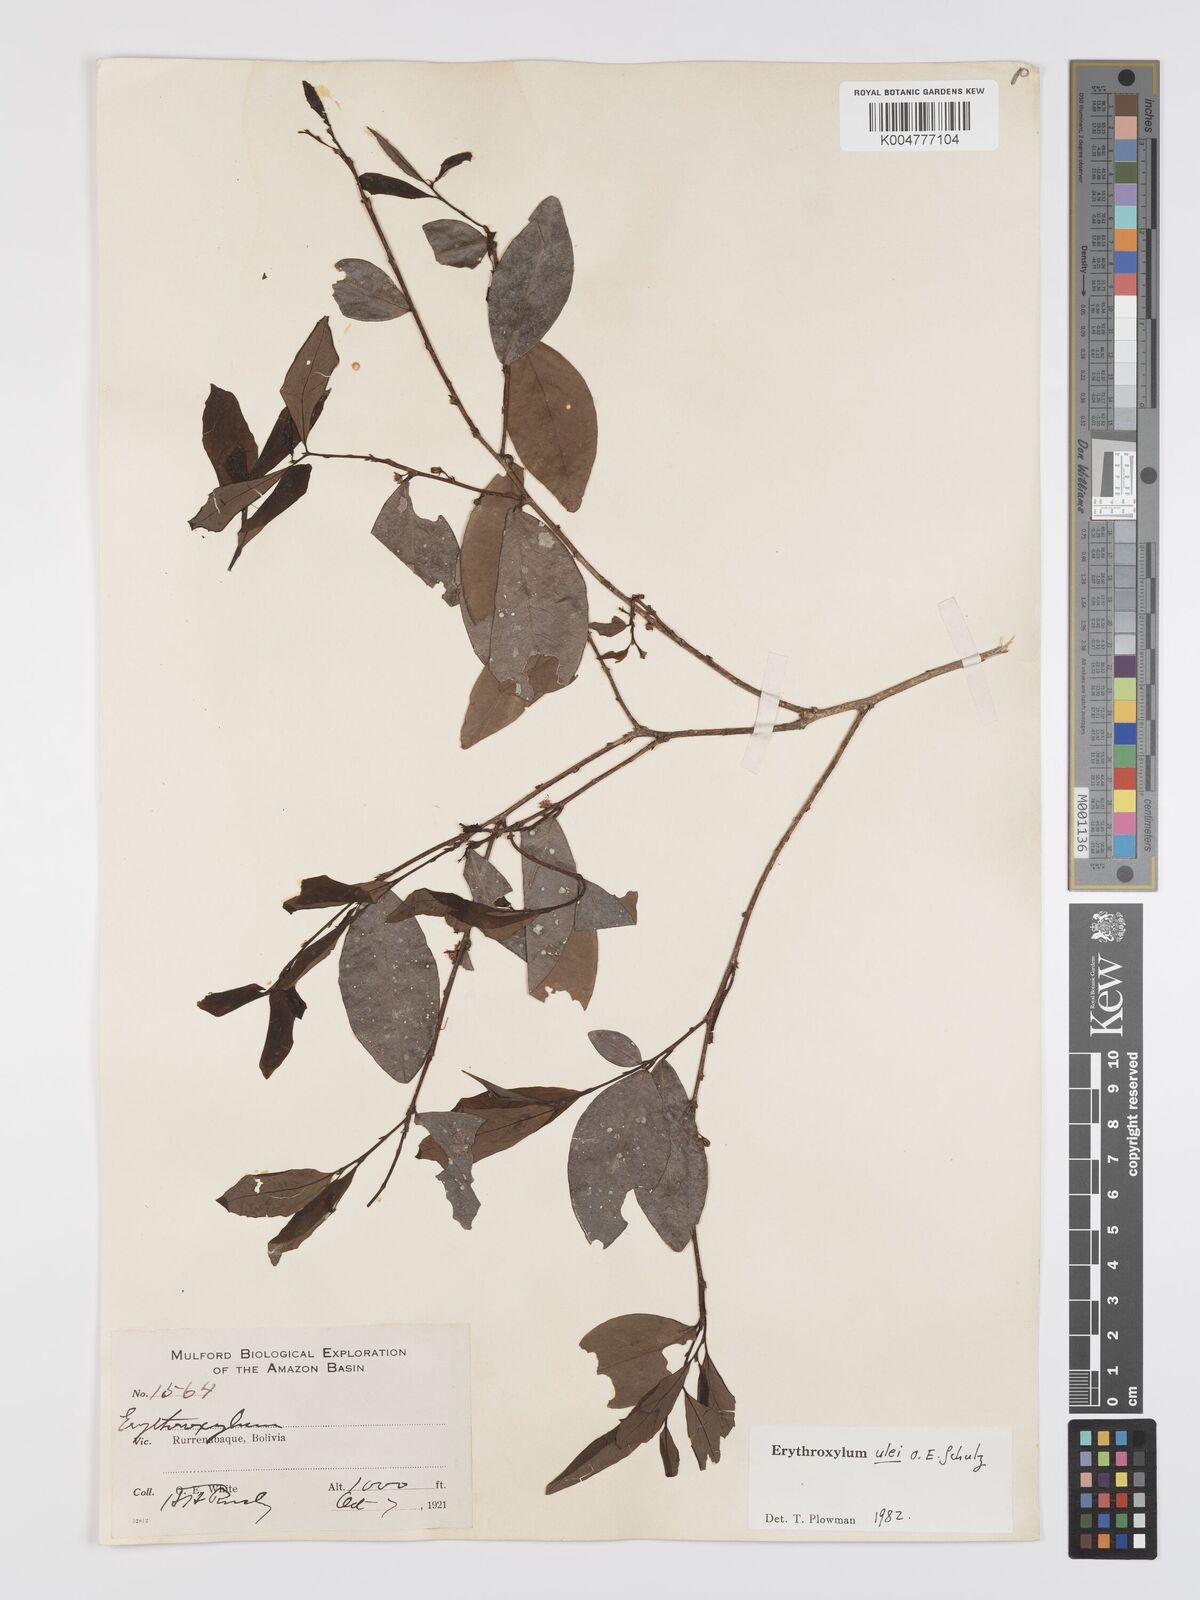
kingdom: Plantae
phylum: Tracheophyta
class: Magnoliopsida
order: Malpighiales
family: Erythroxylaceae
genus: Erythroxylum
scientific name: Erythroxylum ulei
